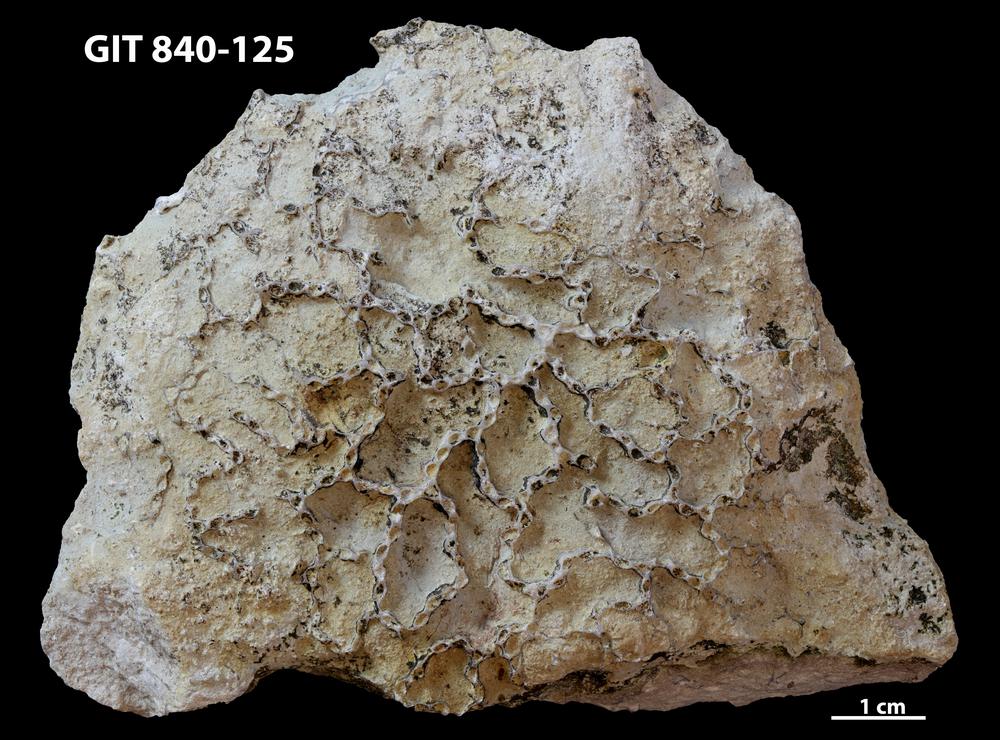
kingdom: Animalia
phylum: Cnidaria
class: Anthozoa
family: Cateniporidae
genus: Catenipora
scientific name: Catenipora
